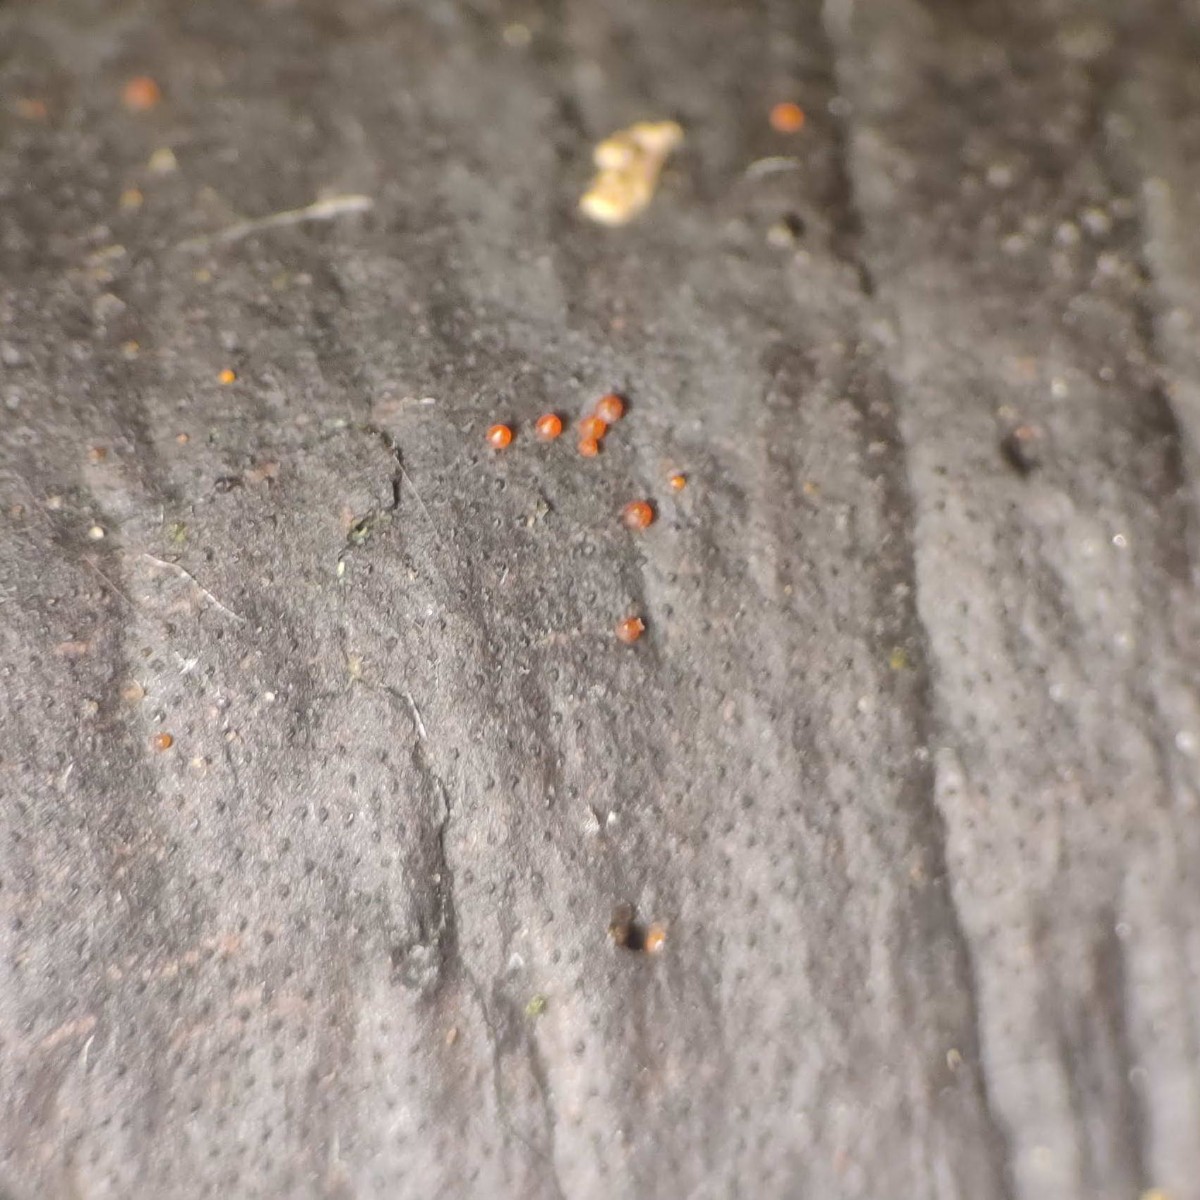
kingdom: Fungi
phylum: Ascomycota
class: Sordariomycetes
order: Xylariales
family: Diatrypaceae
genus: Diatrype
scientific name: Diatrype decorticata
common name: barksprænger-kulskorpe
